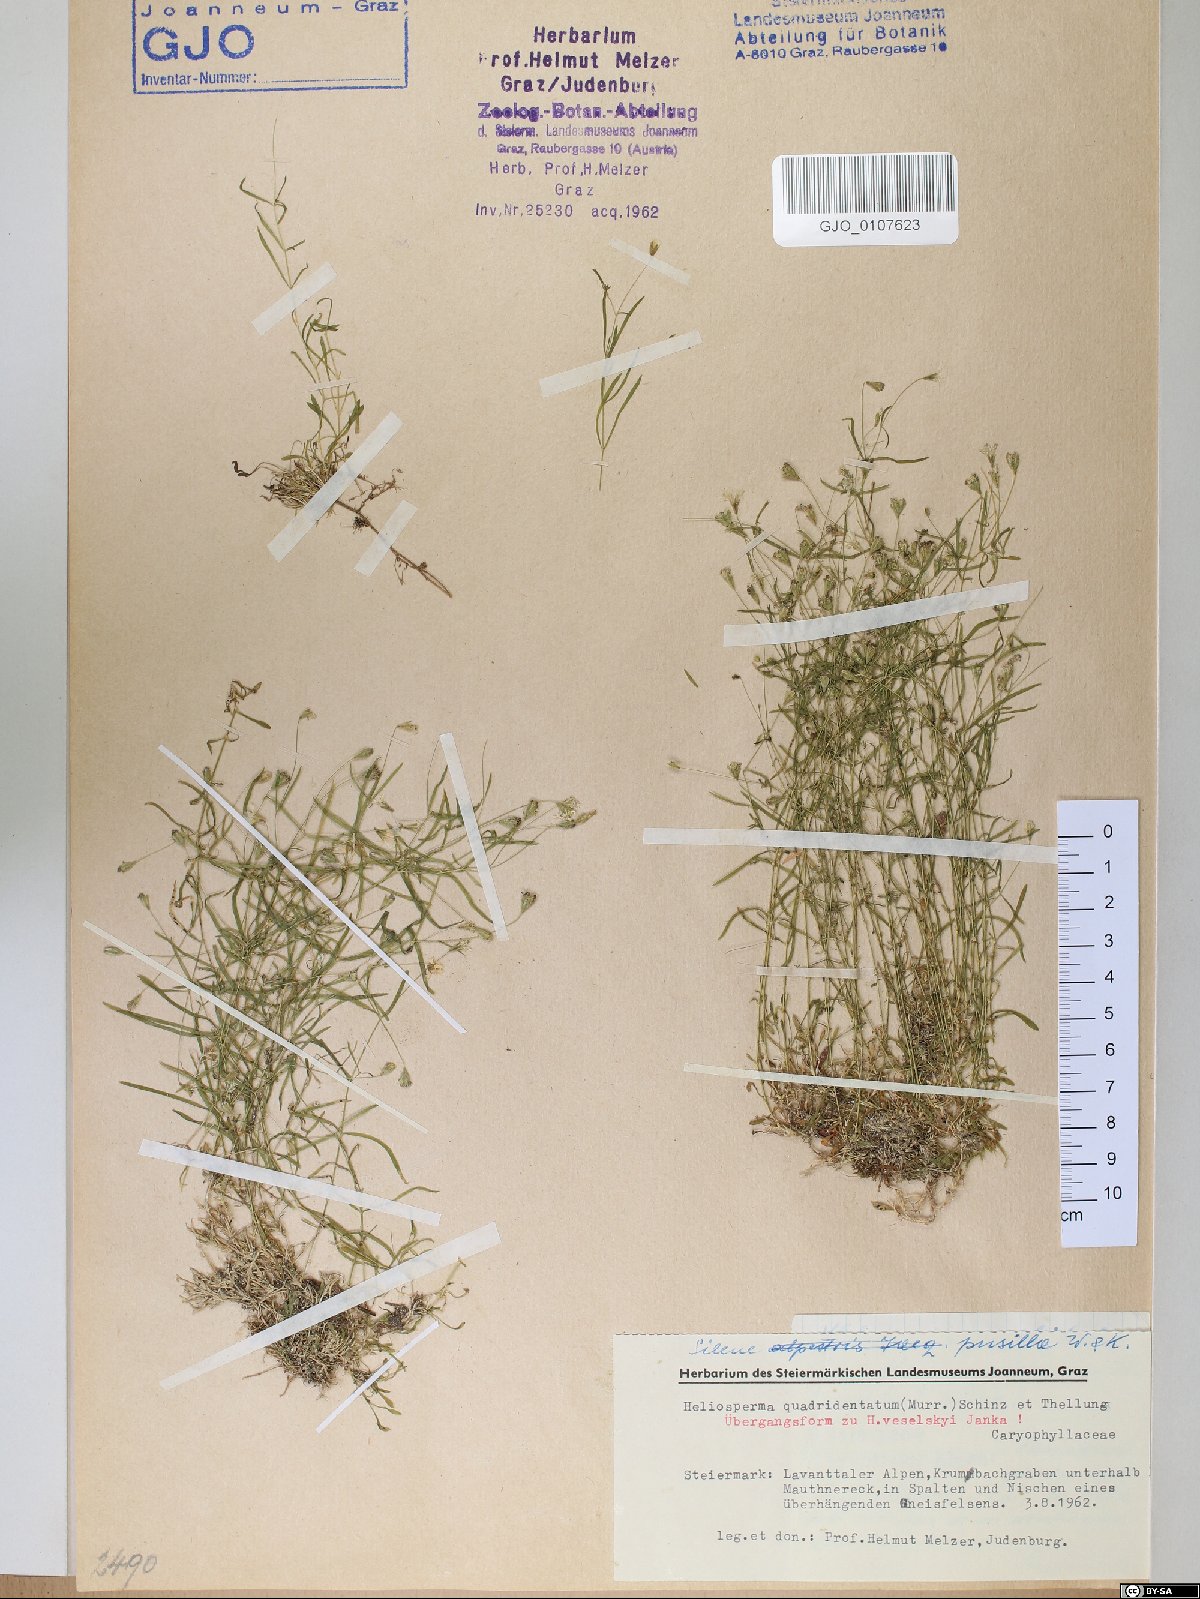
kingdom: Plantae
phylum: Tracheophyta
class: Magnoliopsida
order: Caryophyllales
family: Caryophyllaceae
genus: Heliosperma
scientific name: Heliosperma alpestre
